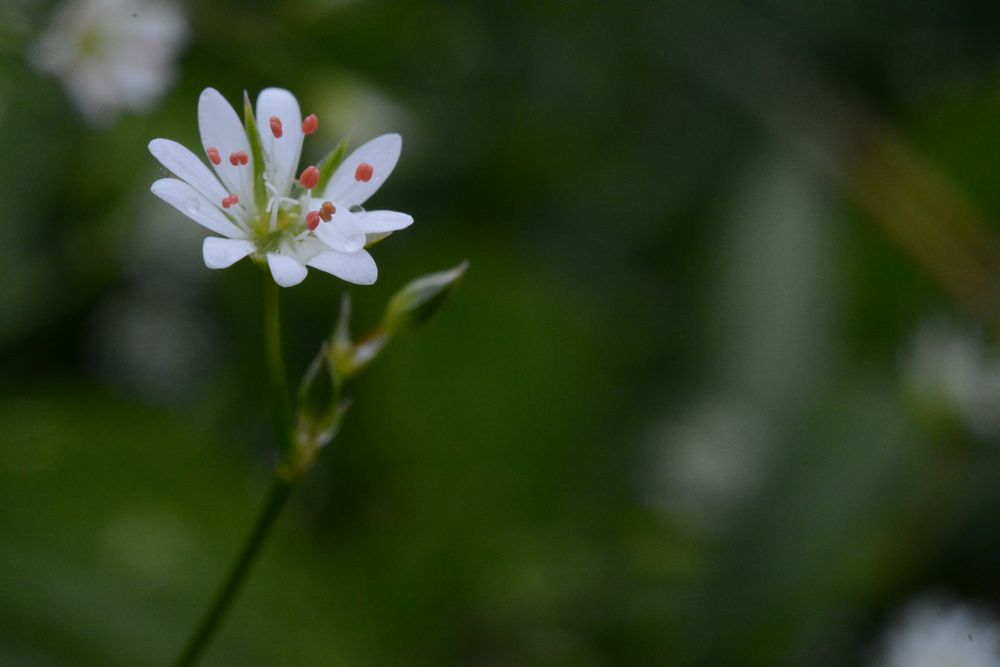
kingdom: Plantae
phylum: Tracheophyta
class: Magnoliopsida
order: Caryophyllales
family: Caryophyllaceae
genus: Stellaria
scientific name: Stellaria graminea
